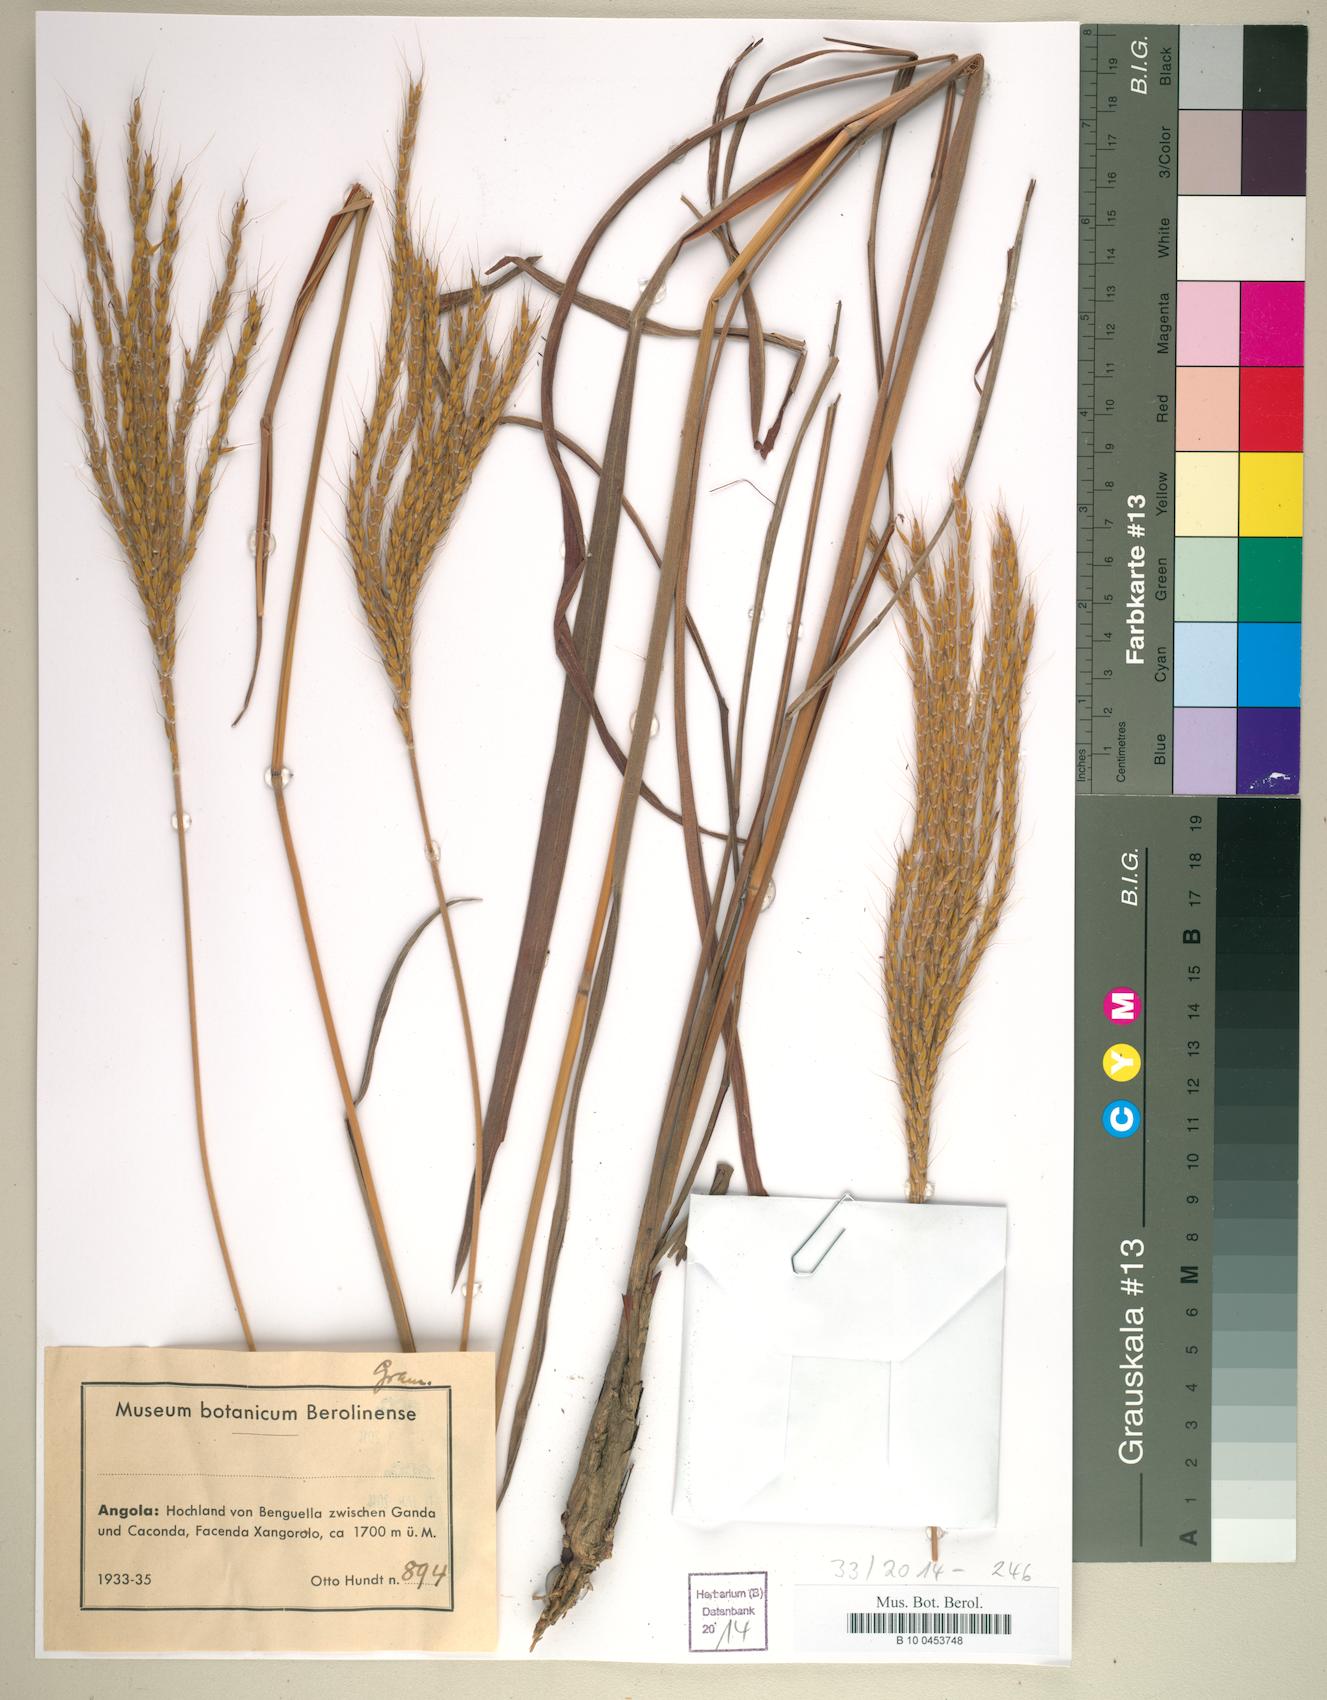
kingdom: Plantae
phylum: Tracheophyta
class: Liliopsida
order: Poales
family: Poaceae
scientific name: Poaceae
